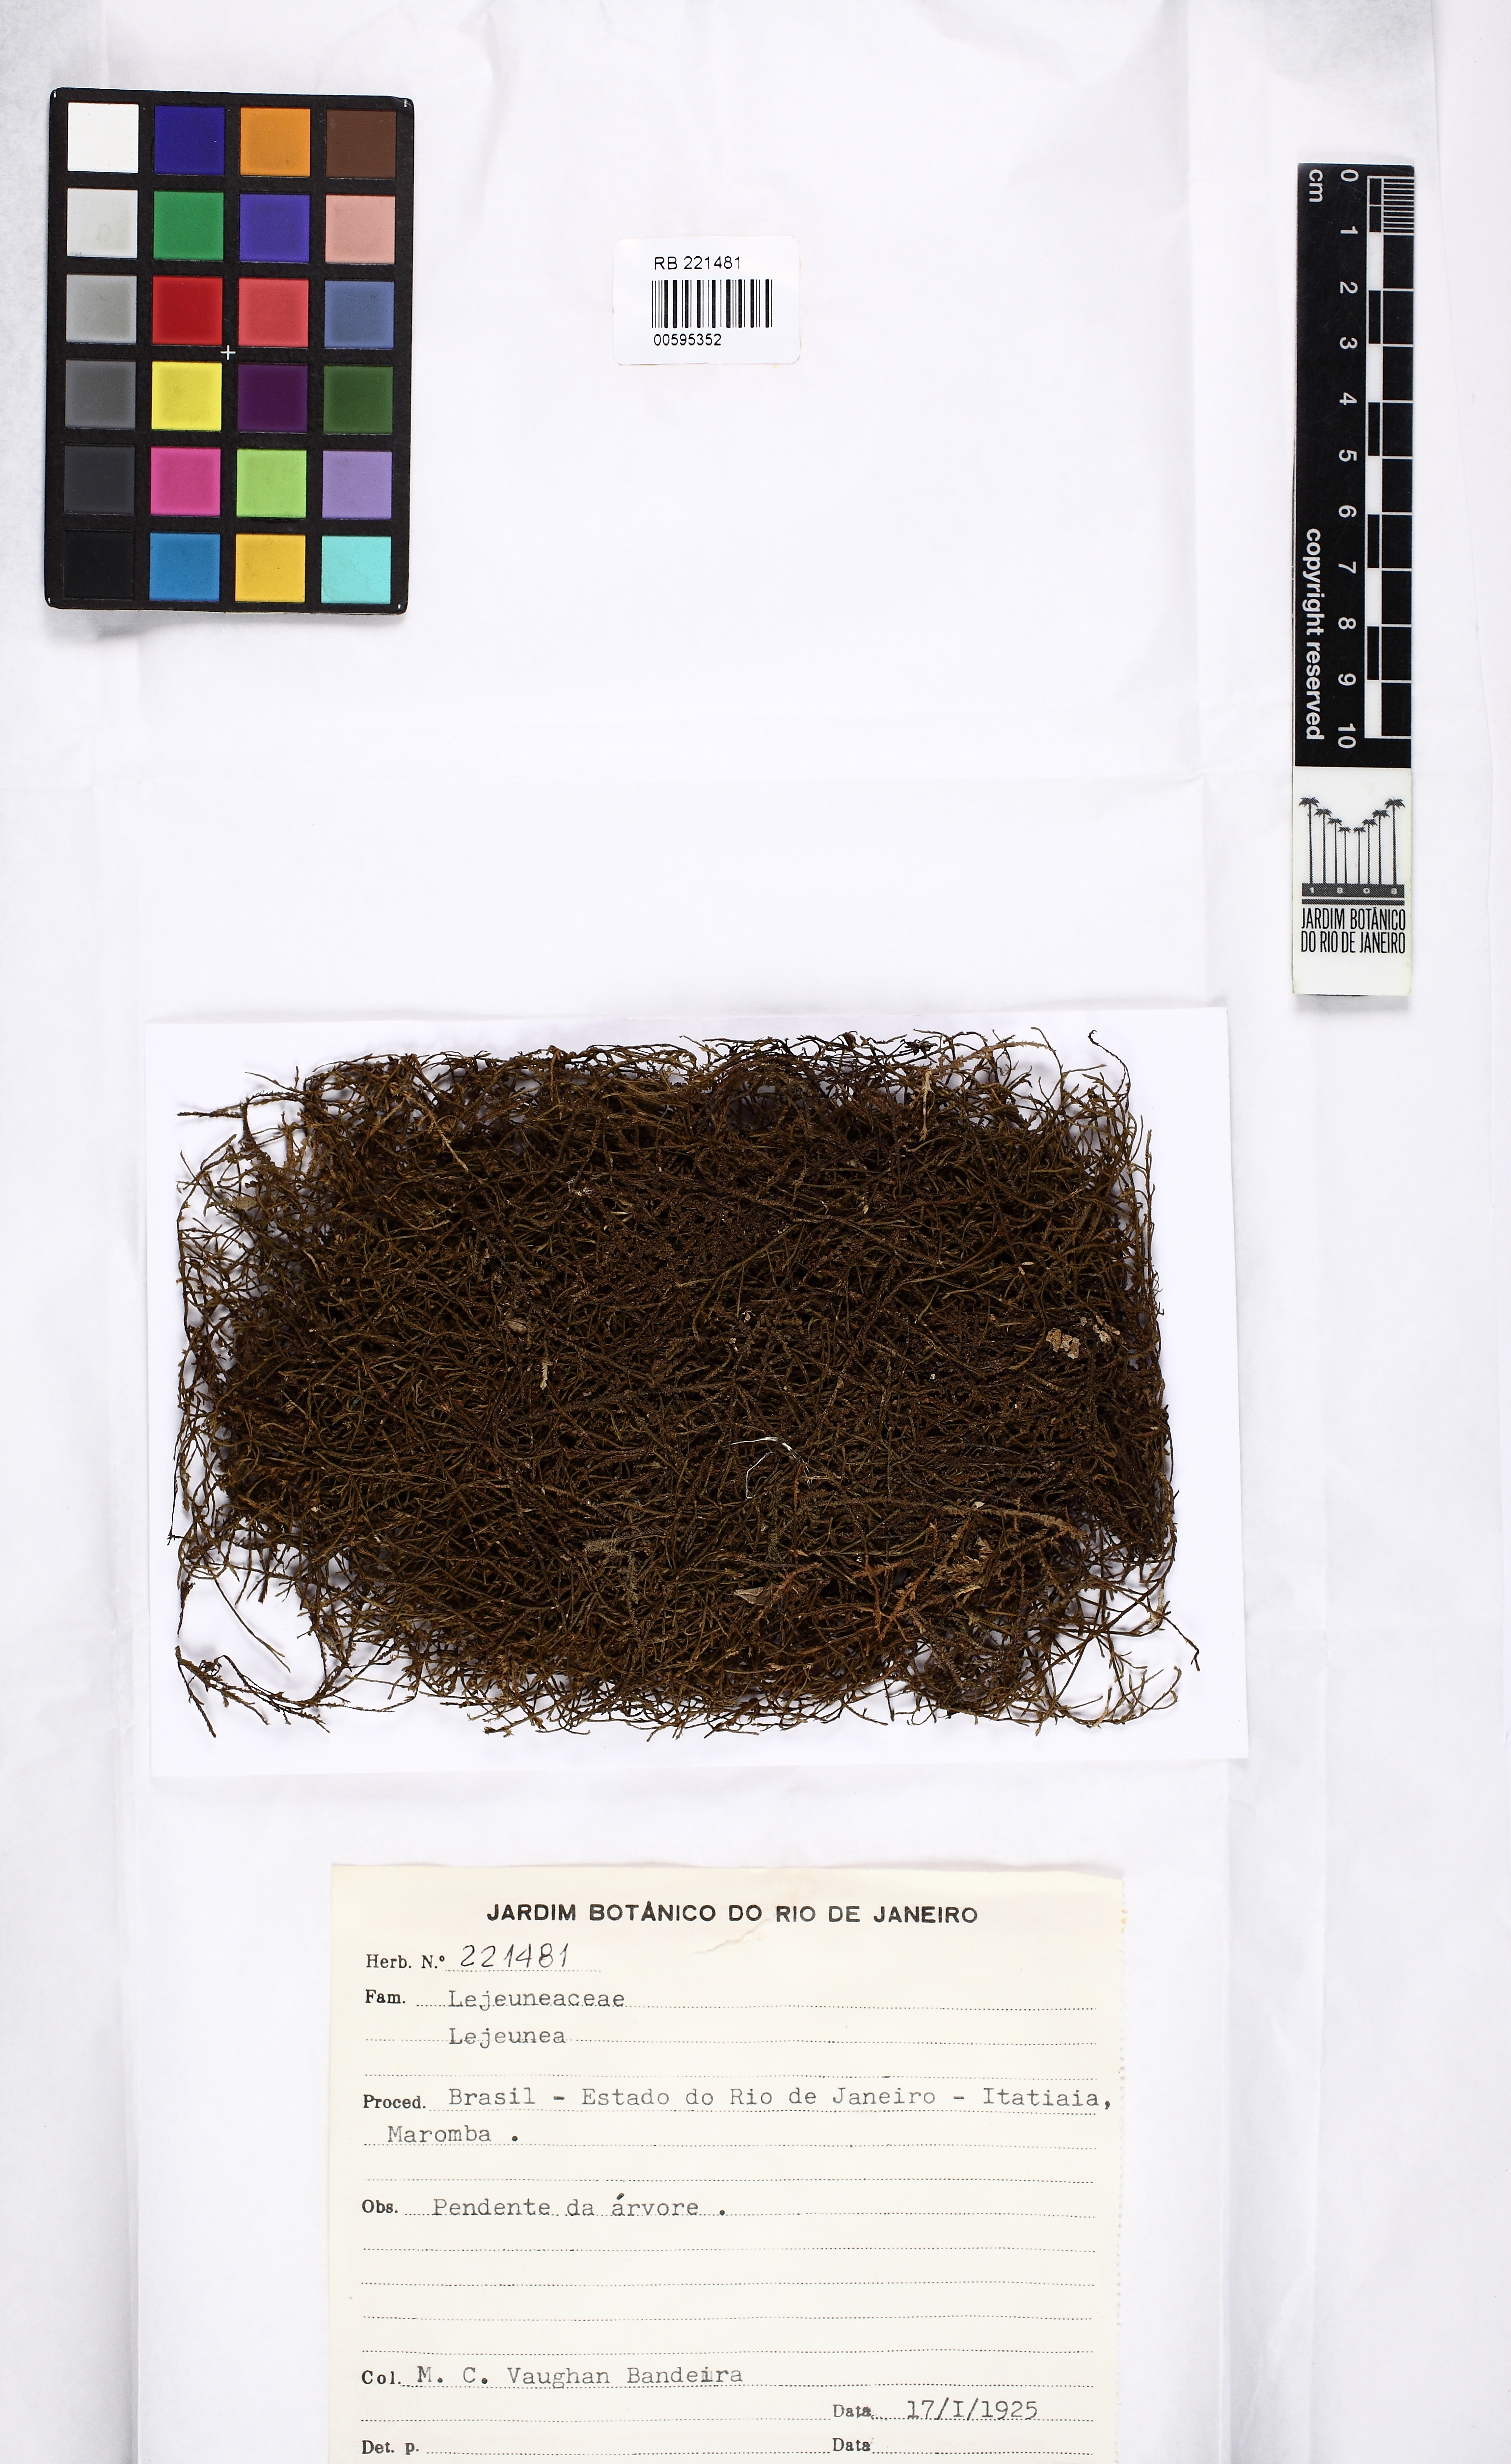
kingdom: Plantae
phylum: Marchantiophyta
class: Jungermanniopsida
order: Porellales
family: Lejeuneaceae
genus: Lejeunea
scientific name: Lejeunea
